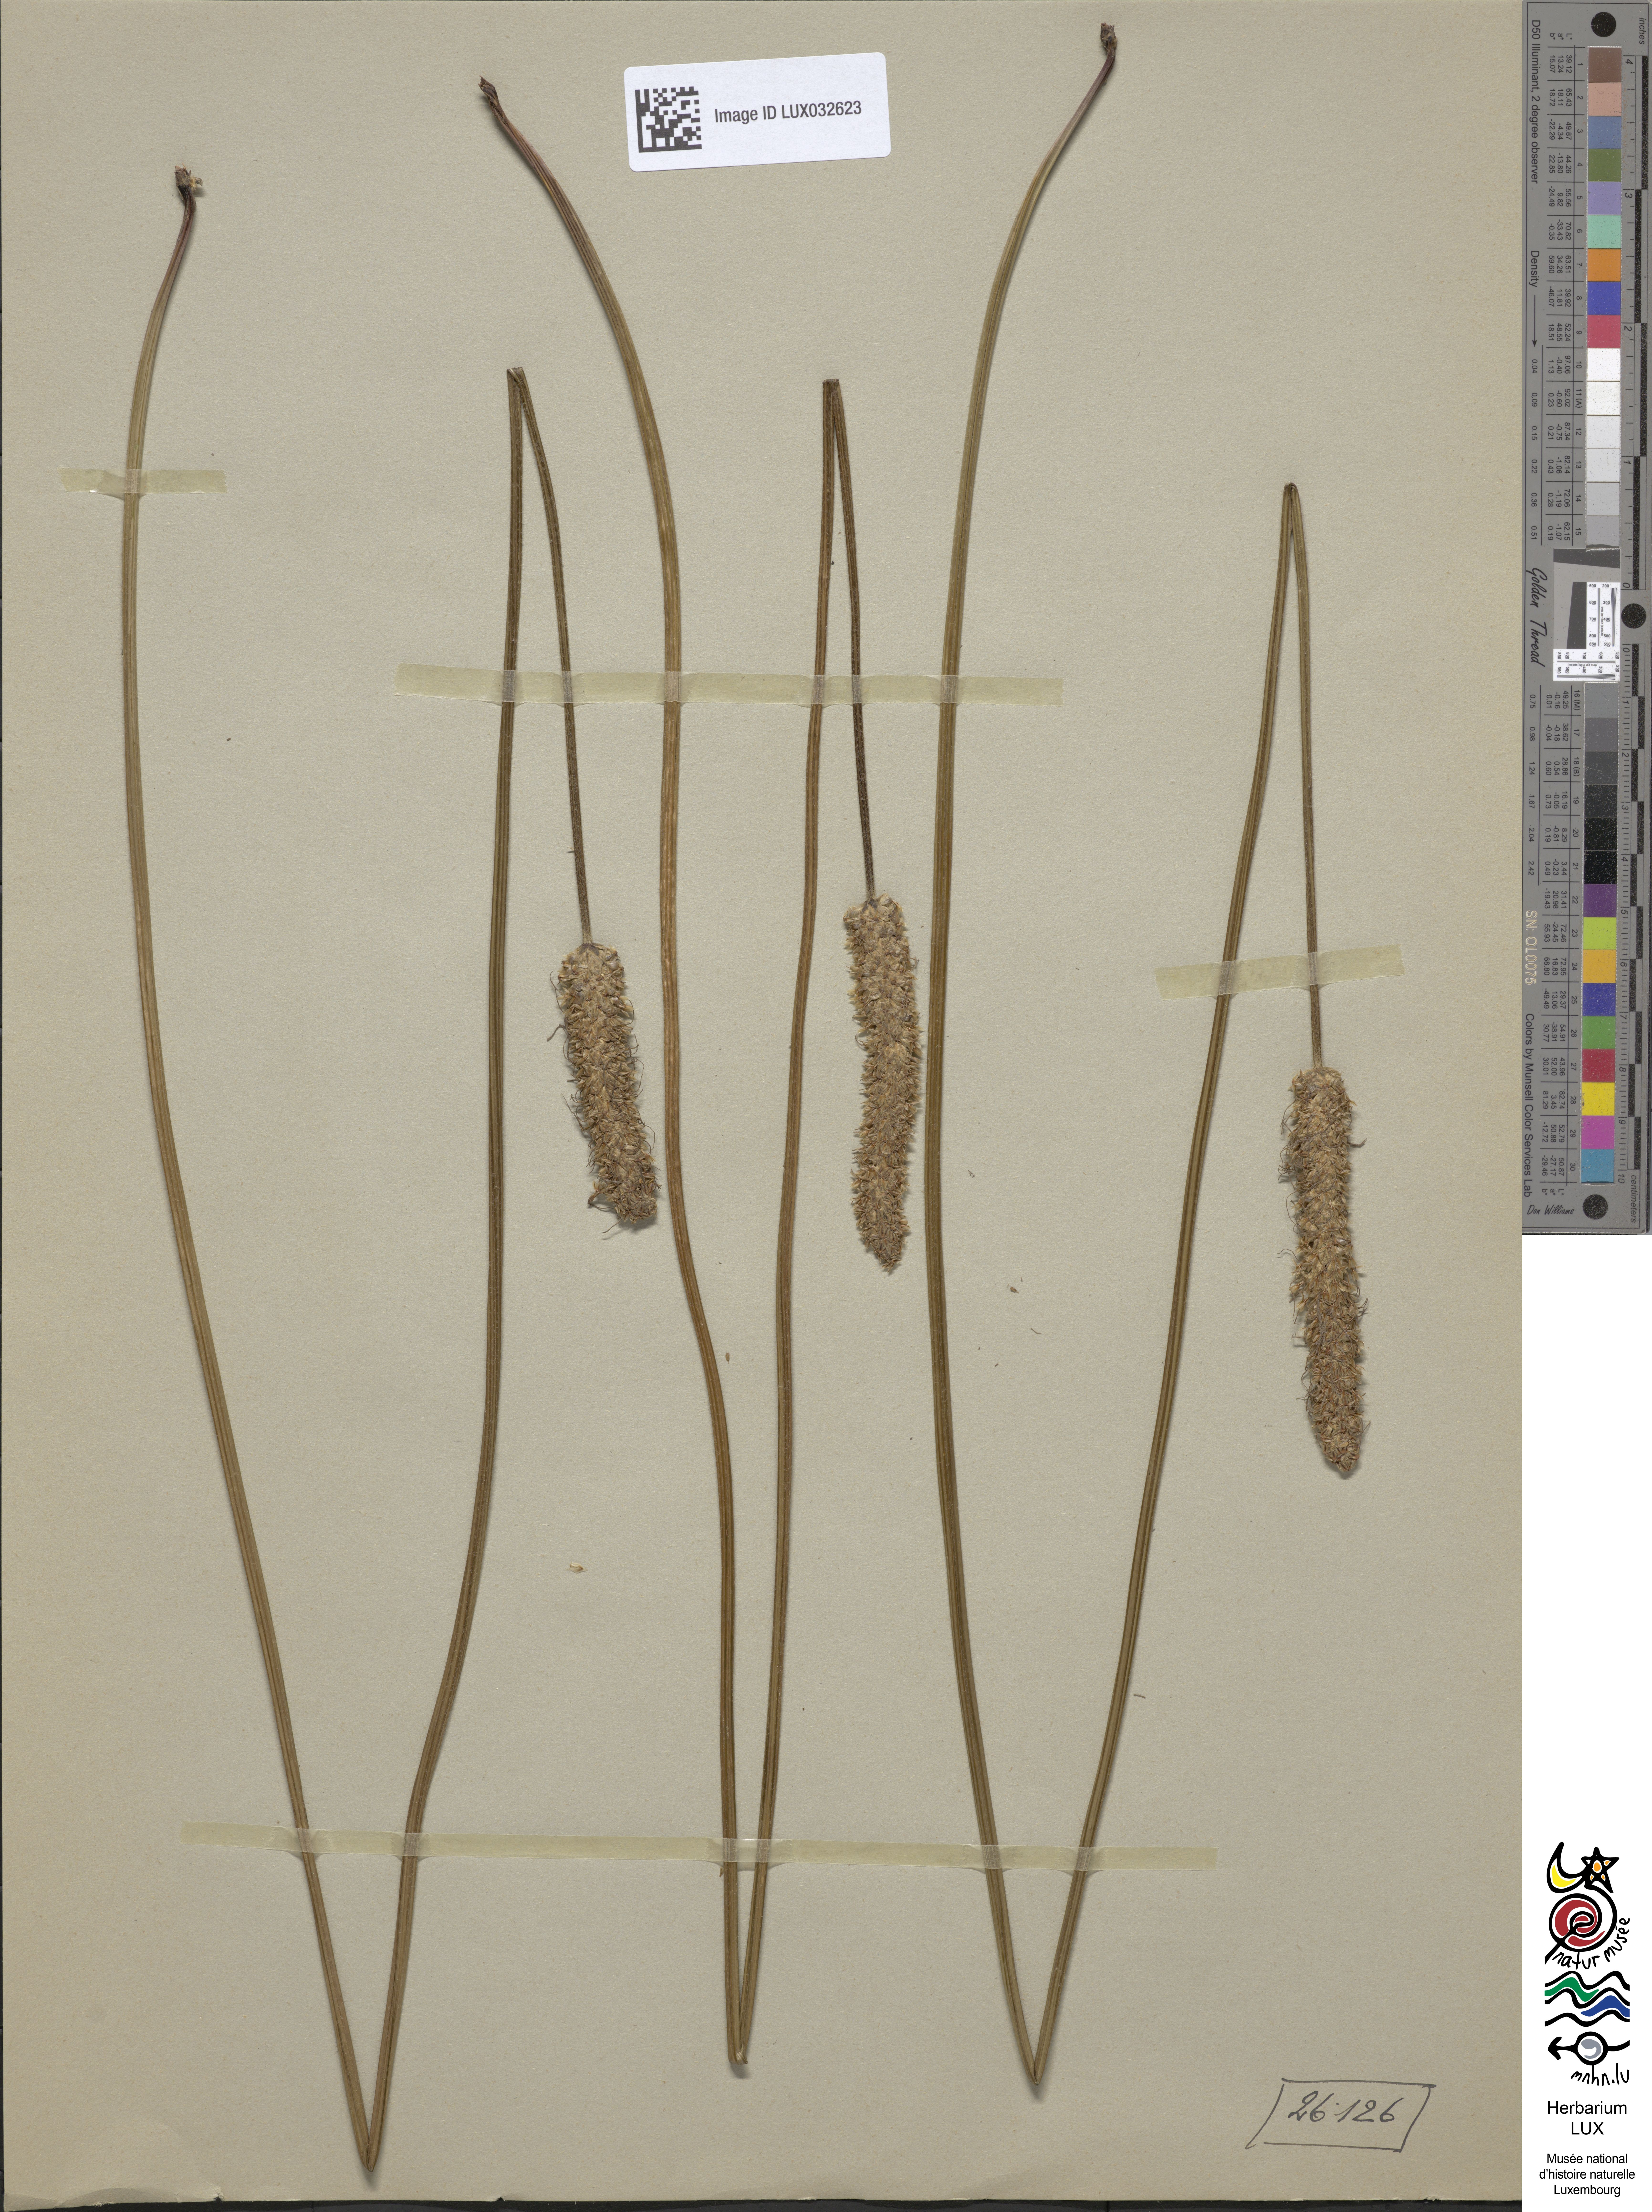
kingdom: Plantae
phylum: Tracheophyta
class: Magnoliopsida
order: Lamiales
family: Plantaginaceae
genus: Plantago
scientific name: Plantago lanceolata
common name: Ribwort plantain
